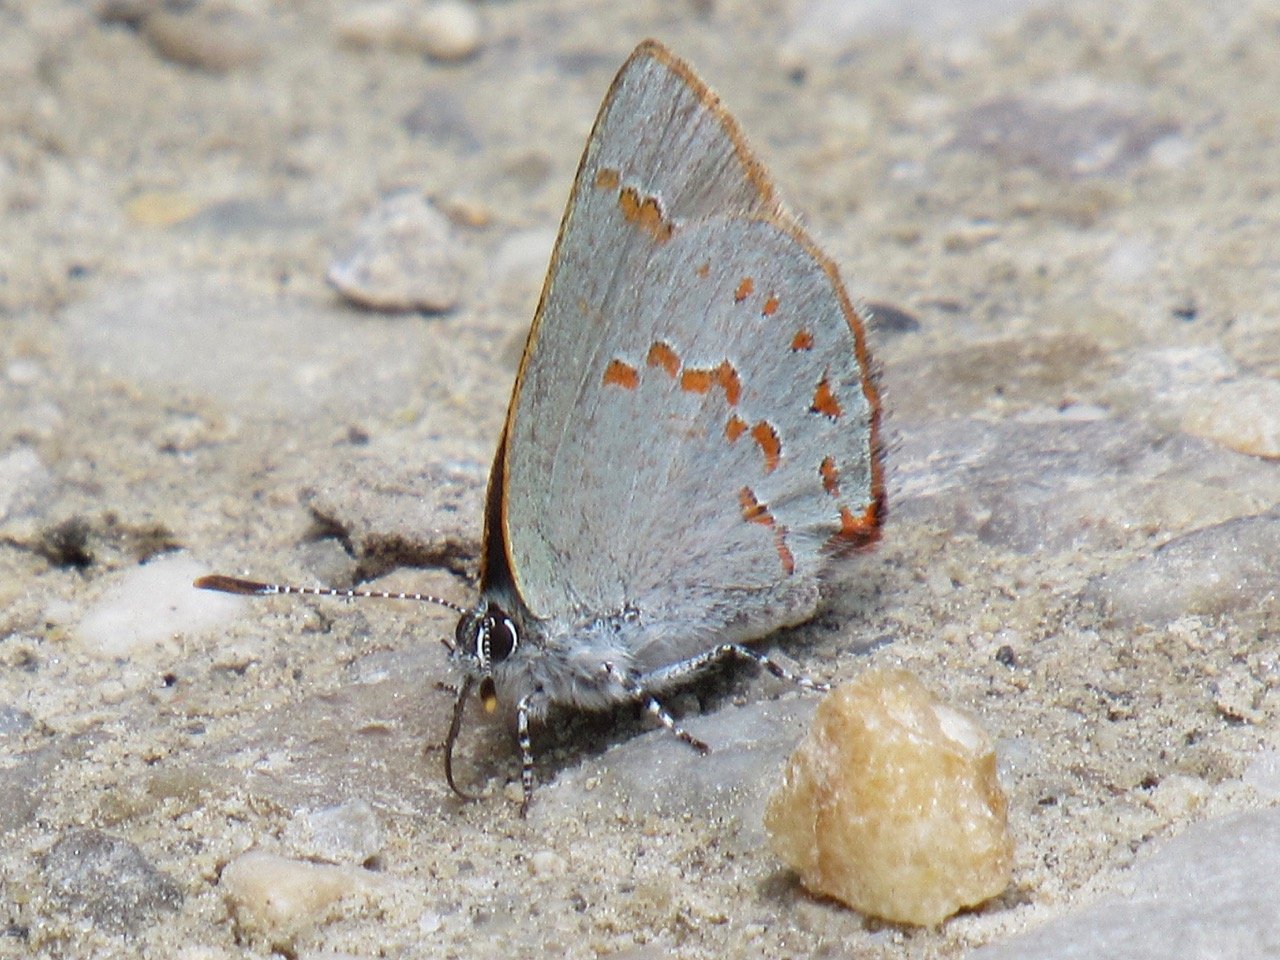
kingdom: Animalia
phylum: Arthropoda
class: Insecta
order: Lepidoptera
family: Lycaenidae
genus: Erora
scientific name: Erora laeta
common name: Early Hairstreak
